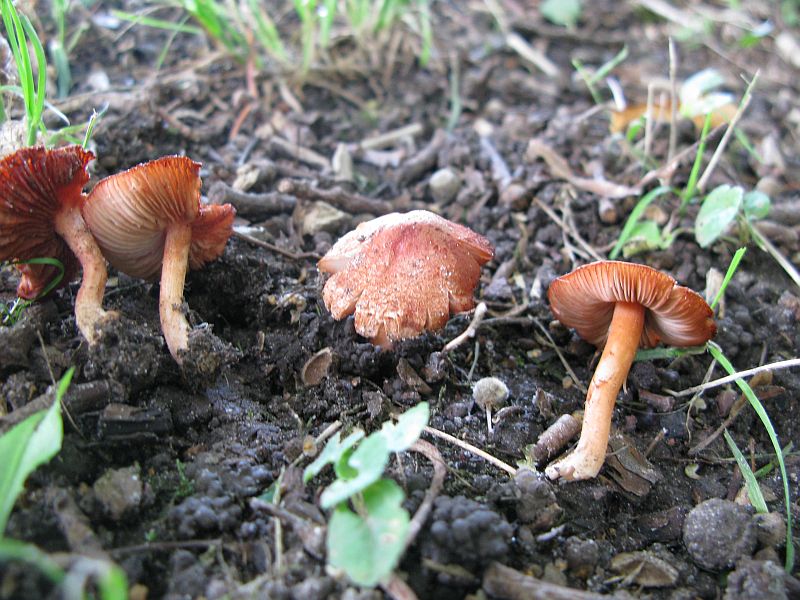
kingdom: Fungi
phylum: Basidiomycota
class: Agaricomycetes
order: Agaricales
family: Inocybaceae
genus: Inocybe
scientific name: Inocybe
